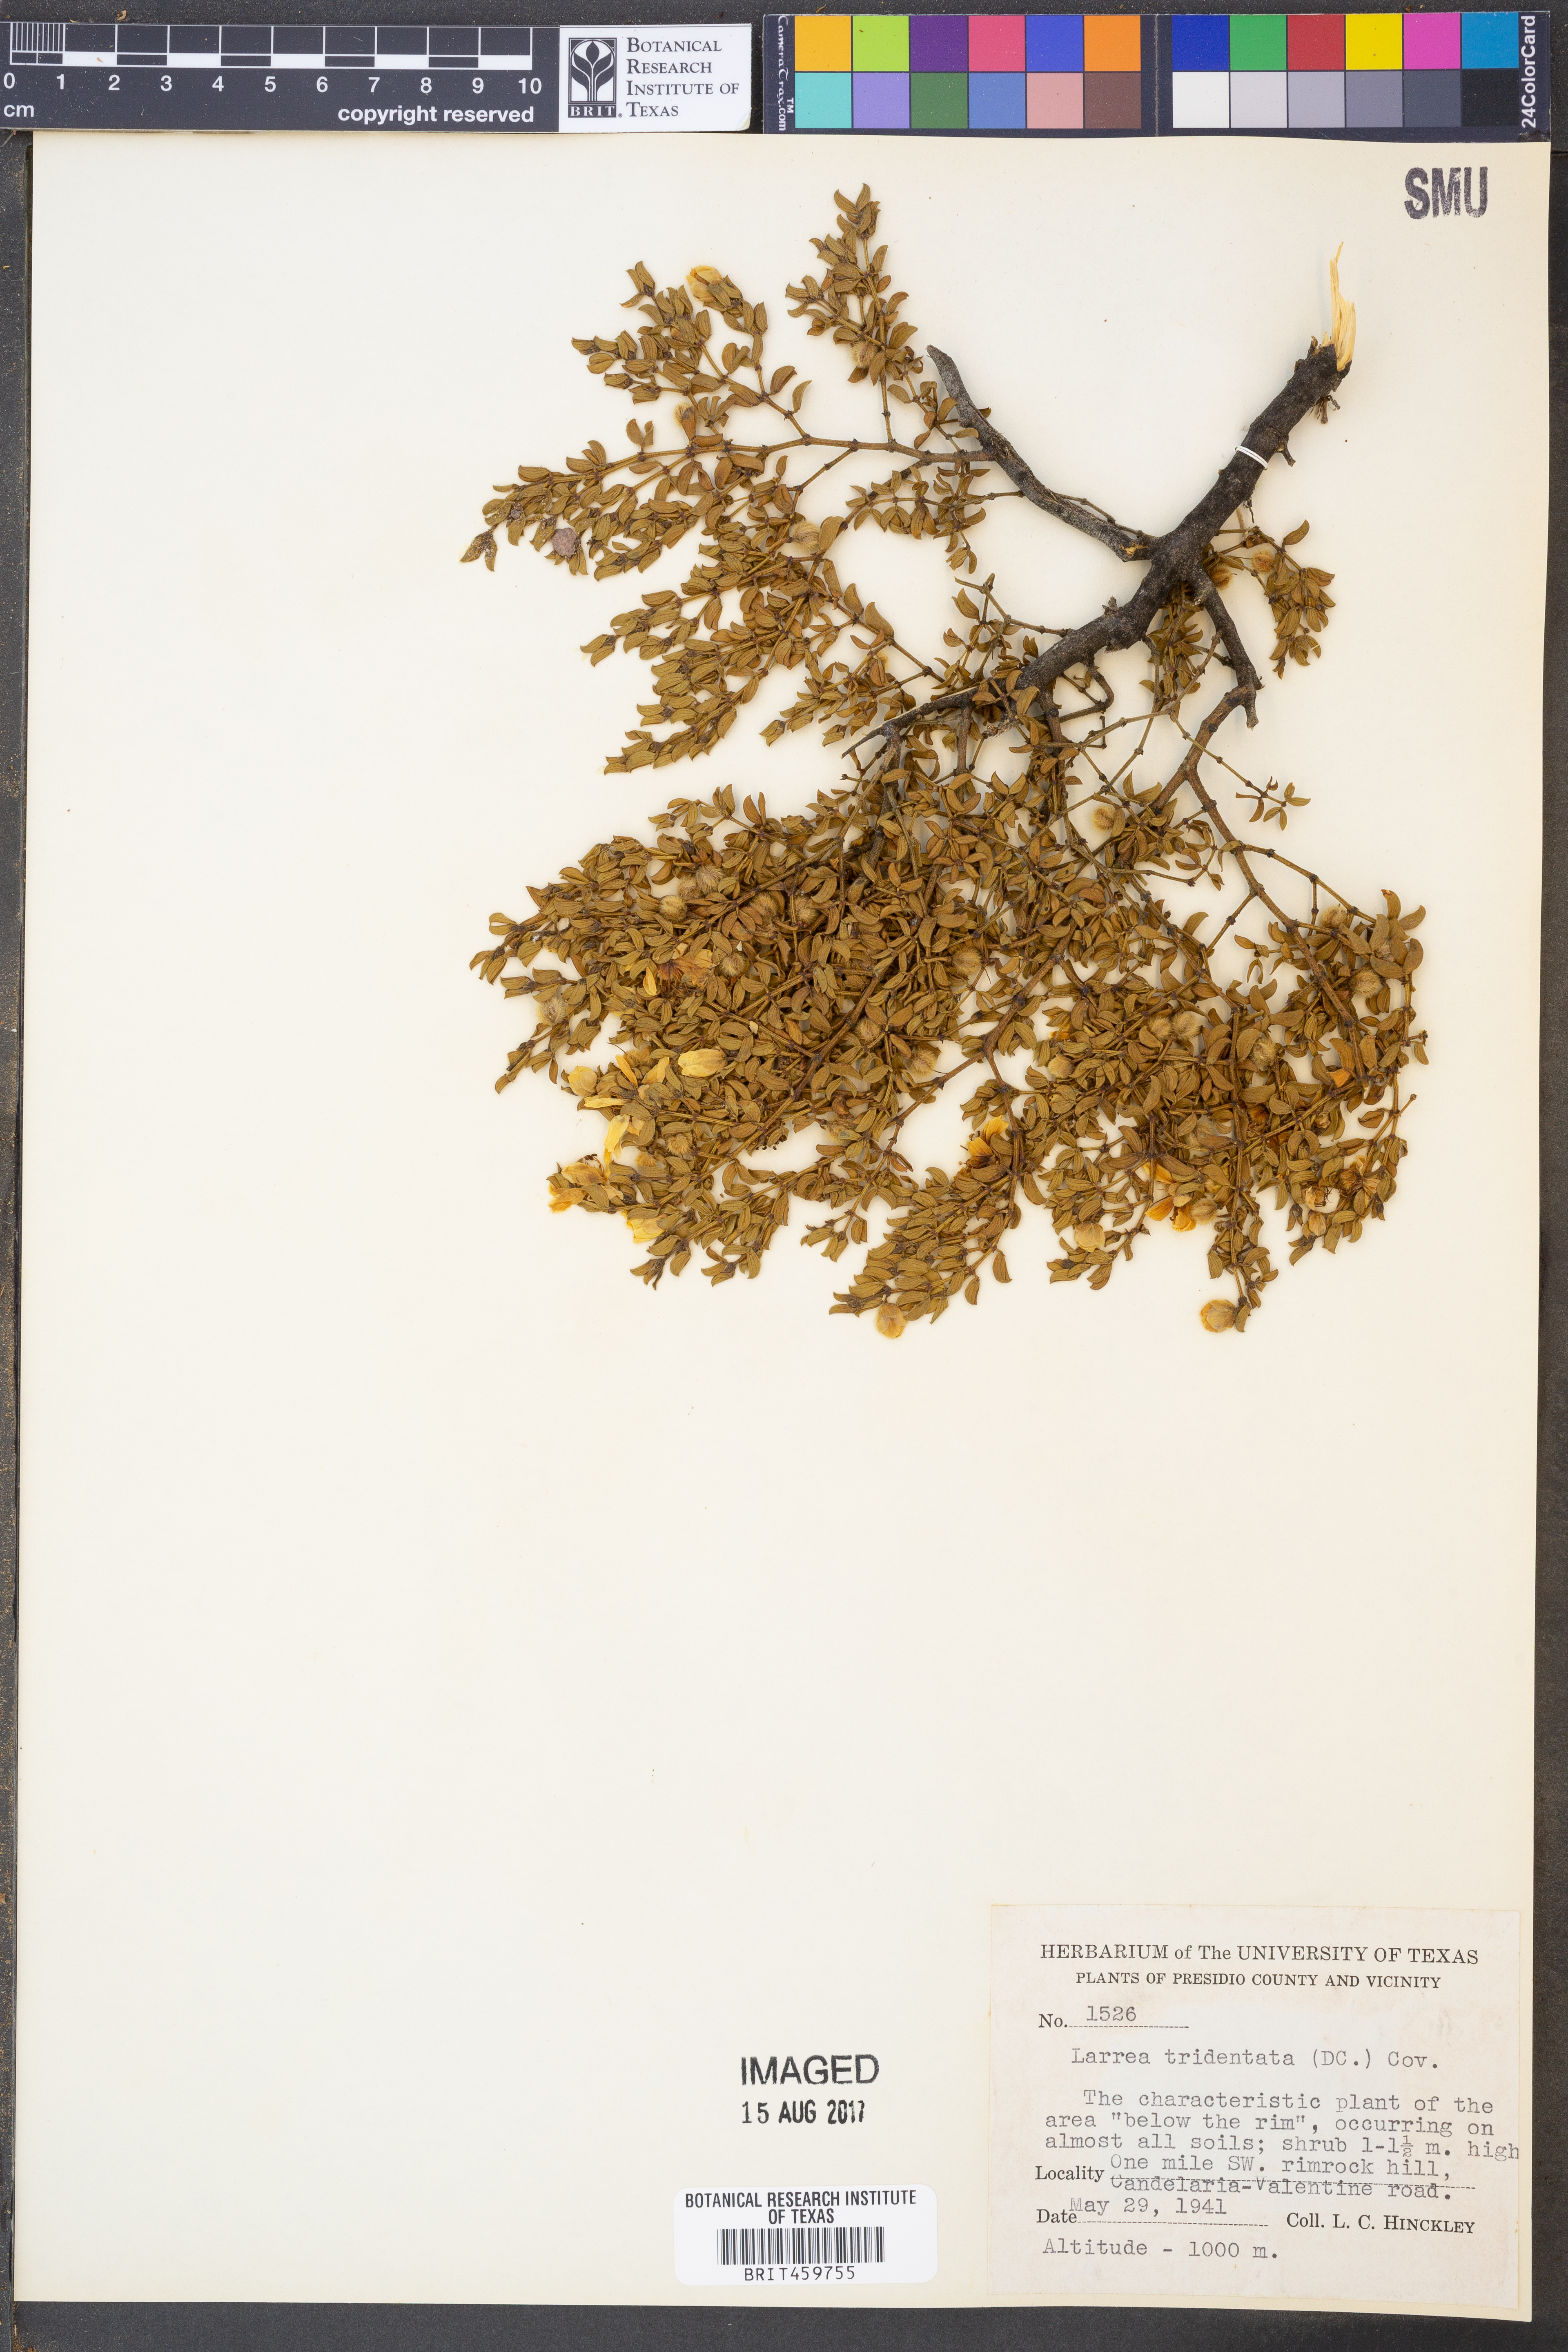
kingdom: Plantae
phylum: Tracheophyta
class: Magnoliopsida
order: Zygophyllales
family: Zygophyllaceae
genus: Larrea
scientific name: Larrea tridentata
